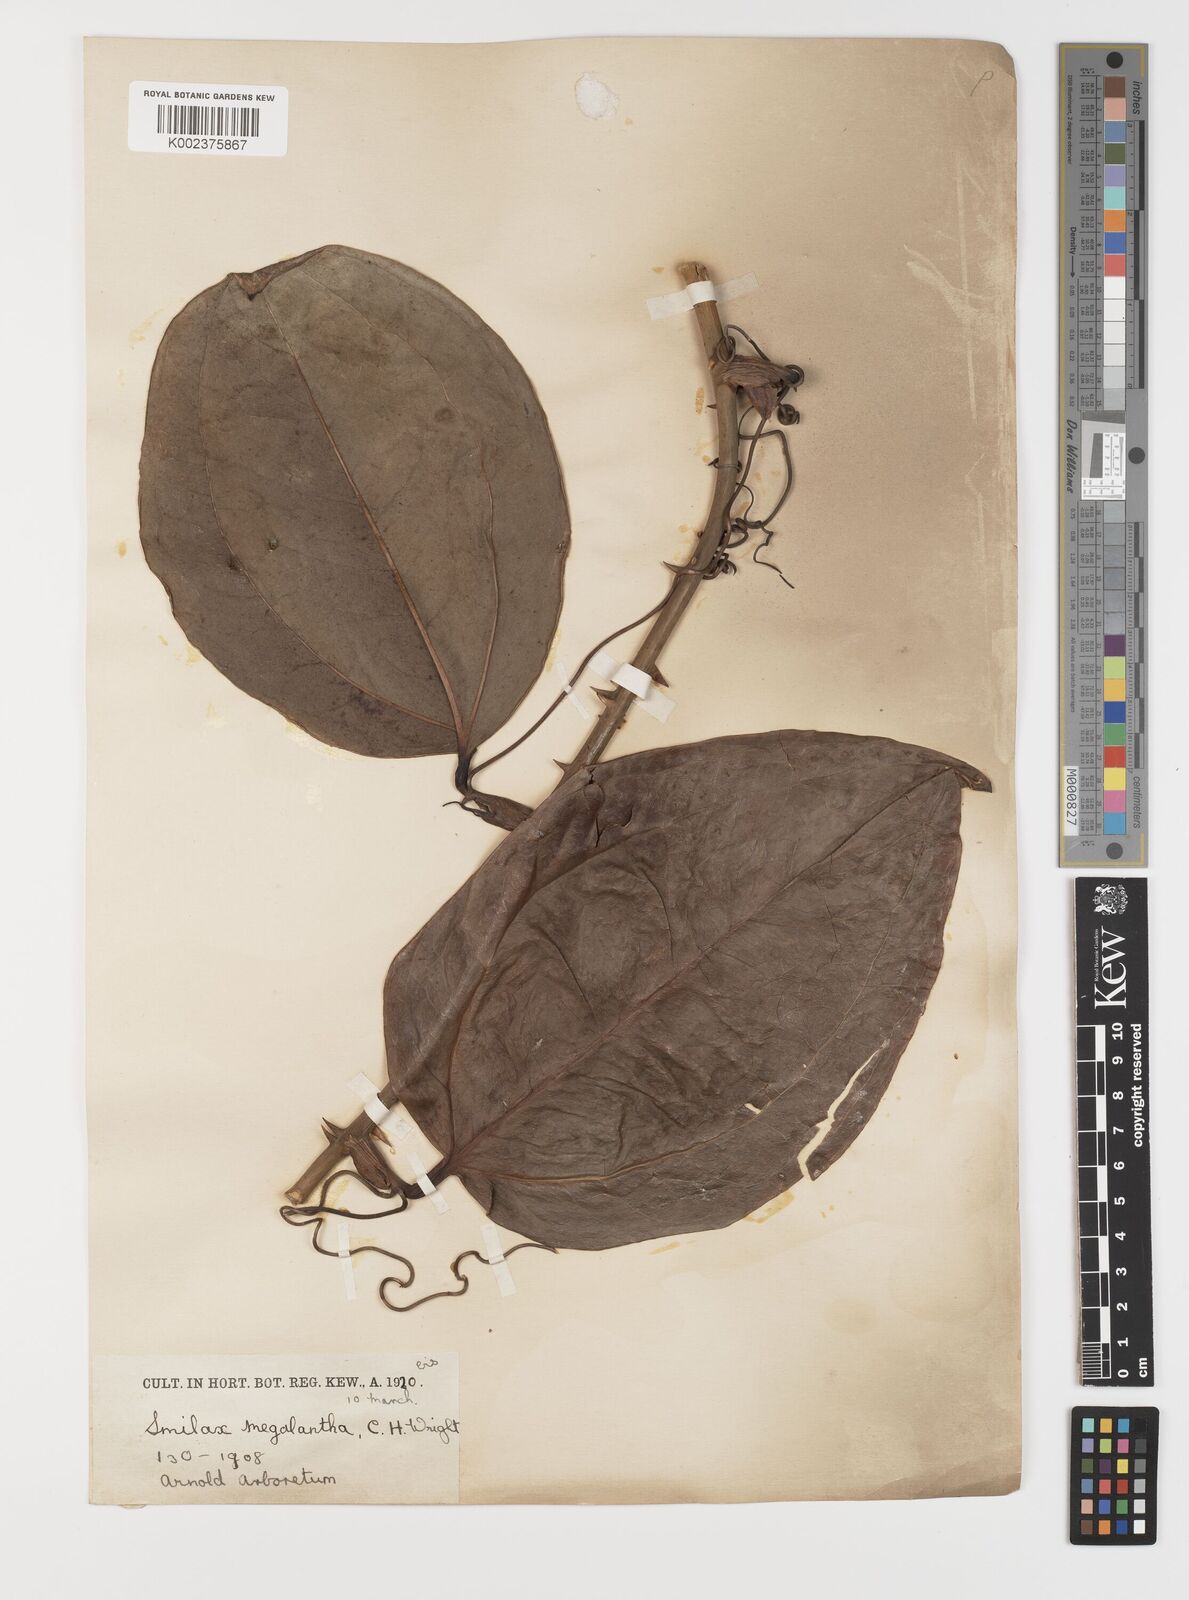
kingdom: Plantae
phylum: Tracheophyta
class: Liliopsida
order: Liliales
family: Smilacaceae
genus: Smilax
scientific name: Smilax megalantha
